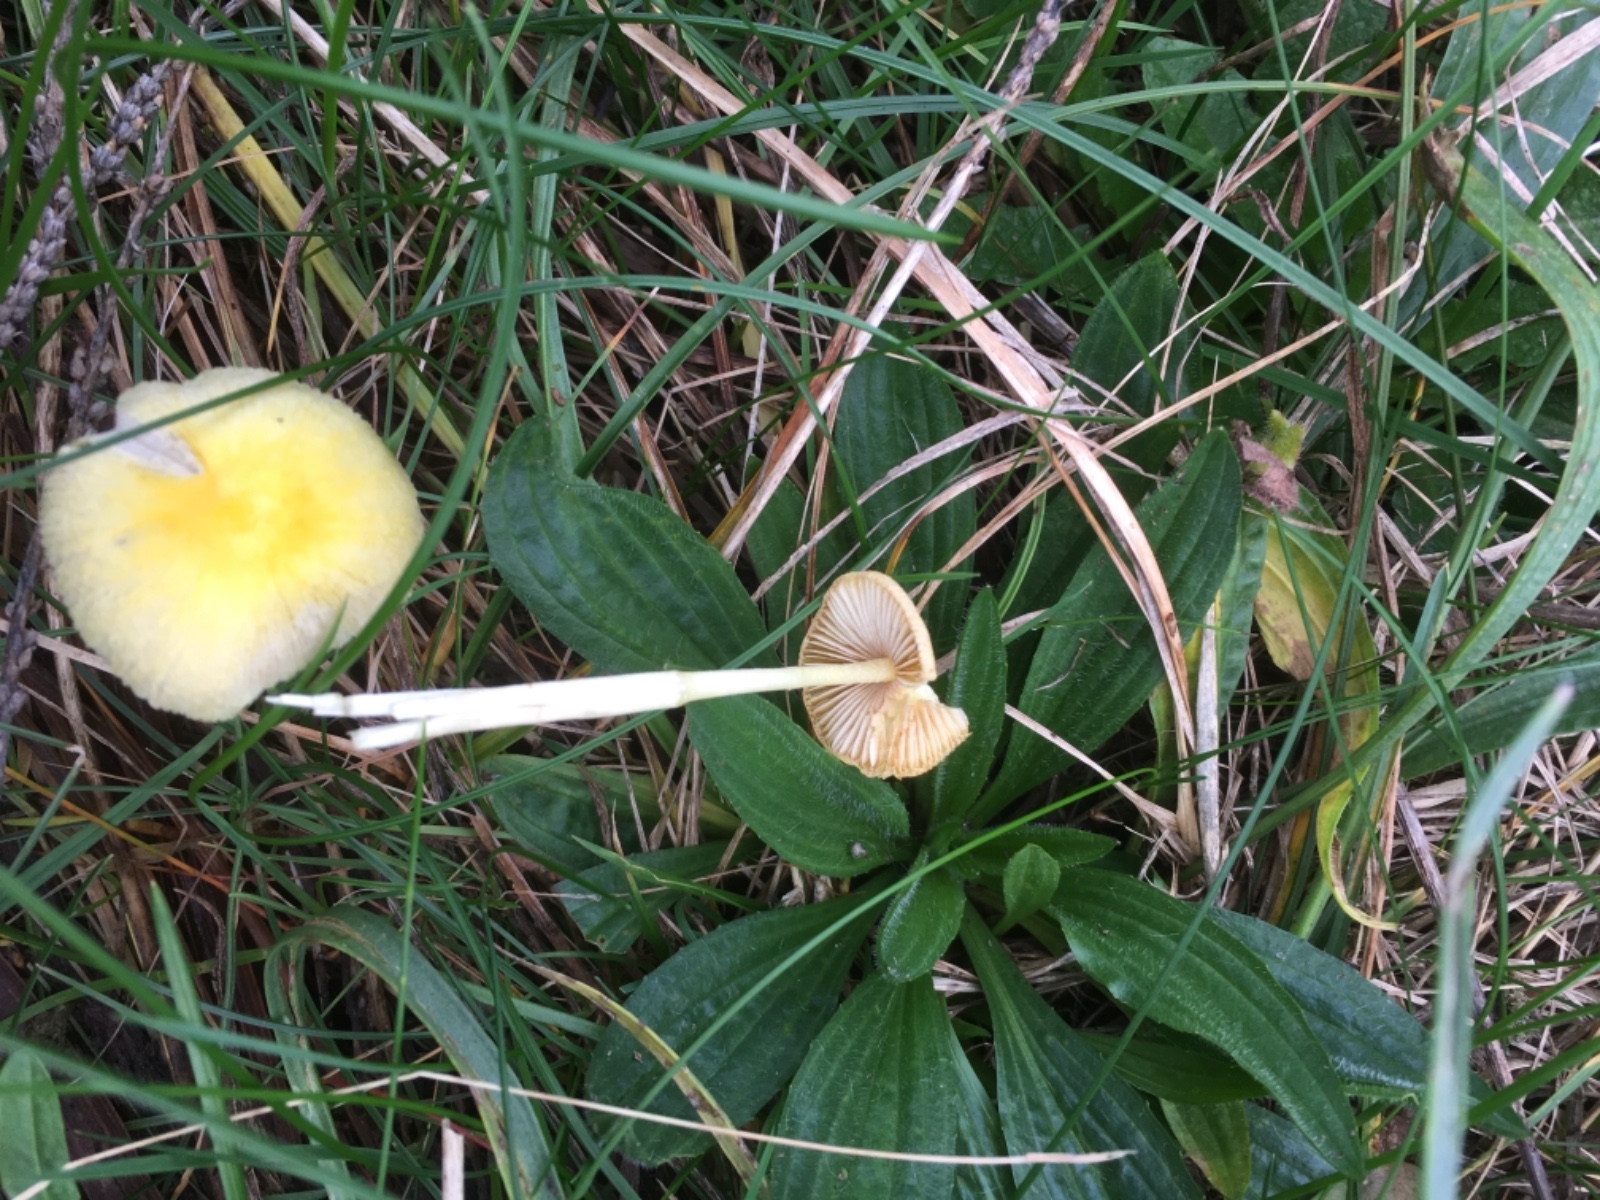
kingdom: Fungi
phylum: Basidiomycota
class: Agaricomycetes
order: Agaricales
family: Bolbitiaceae
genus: Bolbitius
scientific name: Bolbitius titubans
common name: almindelig gulhat
